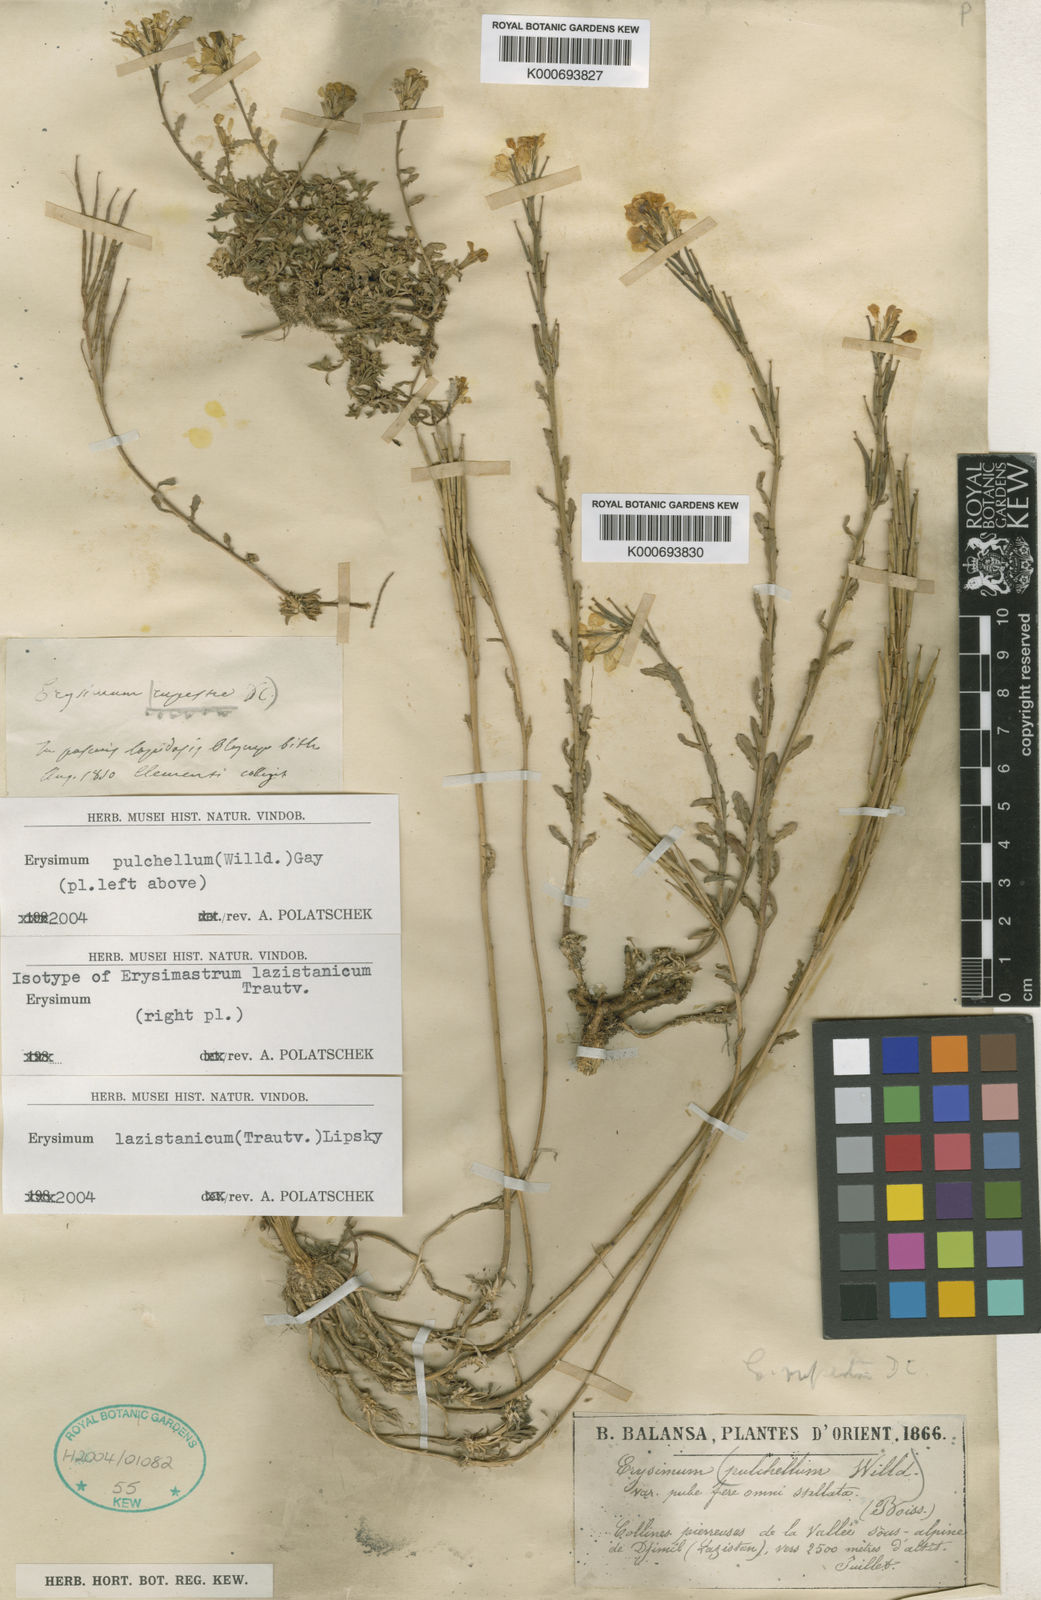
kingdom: Plantae
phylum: Tracheophyta
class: Magnoliopsida
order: Brassicales
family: Brassicaceae
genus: Erysimum
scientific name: Erysimum pulchellum
